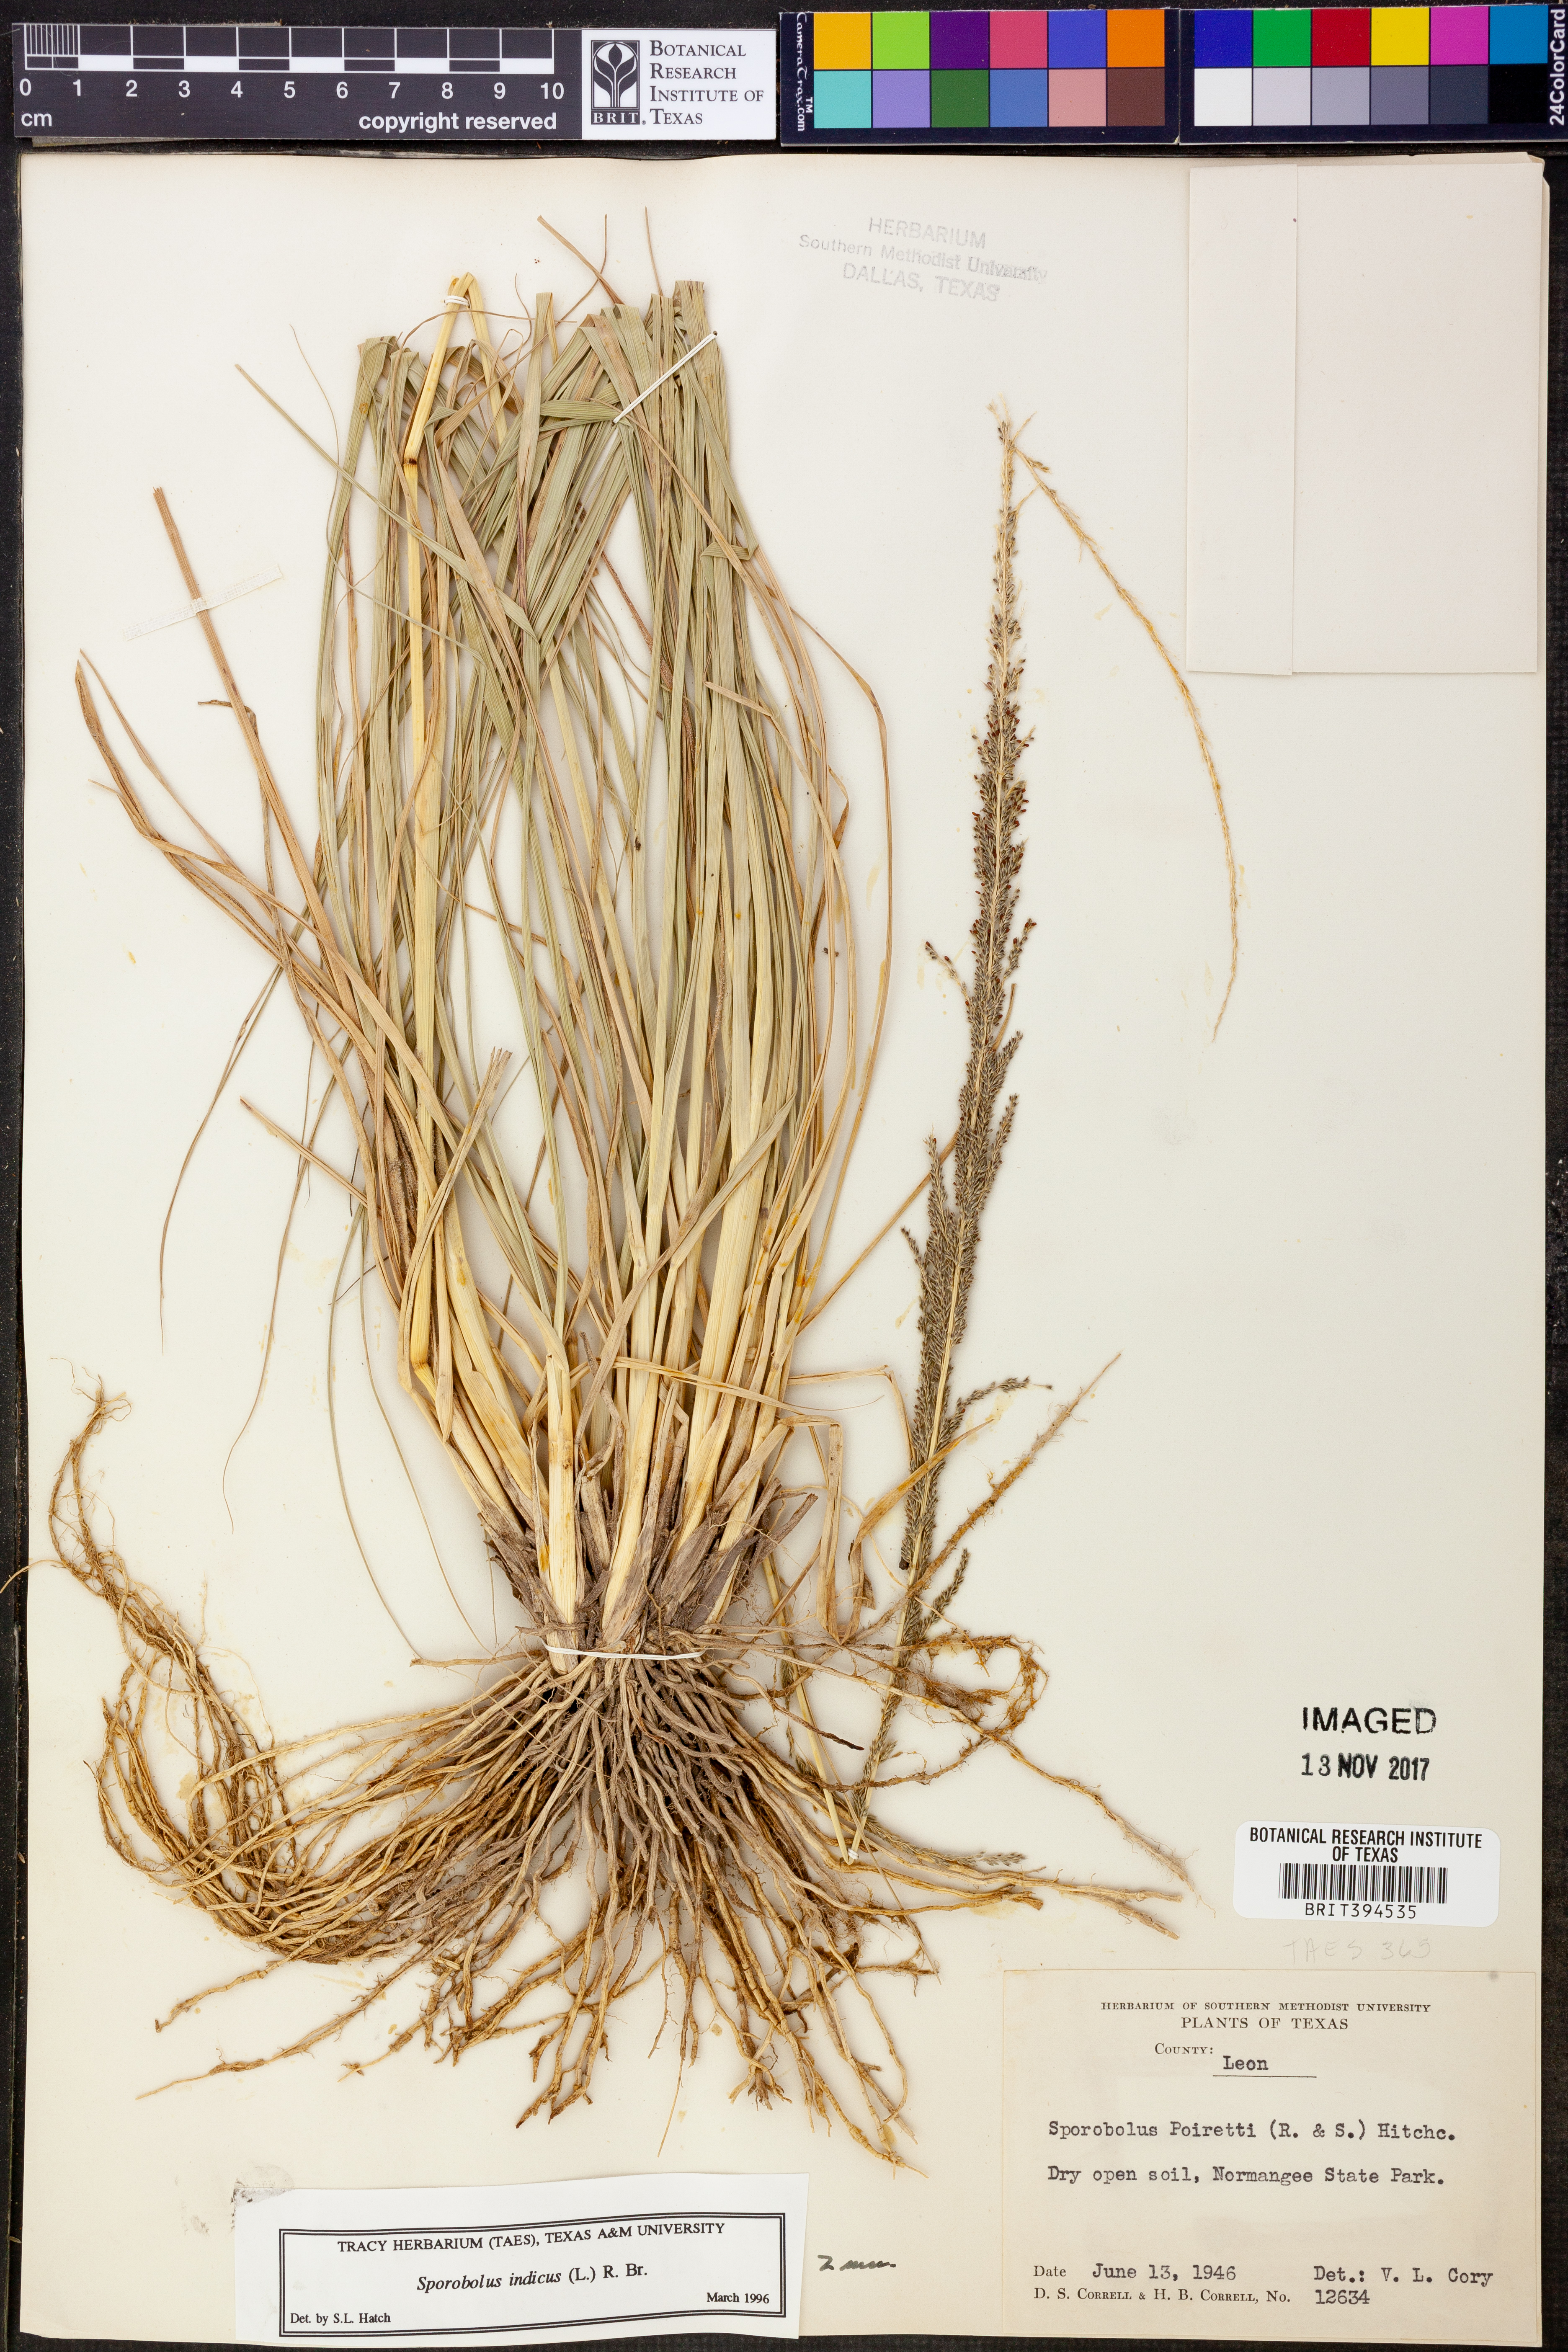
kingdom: Plantae
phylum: Tracheophyta
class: Liliopsida
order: Poales
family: Poaceae
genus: Sporobolus
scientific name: Sporobolus indicus
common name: Smut grass
